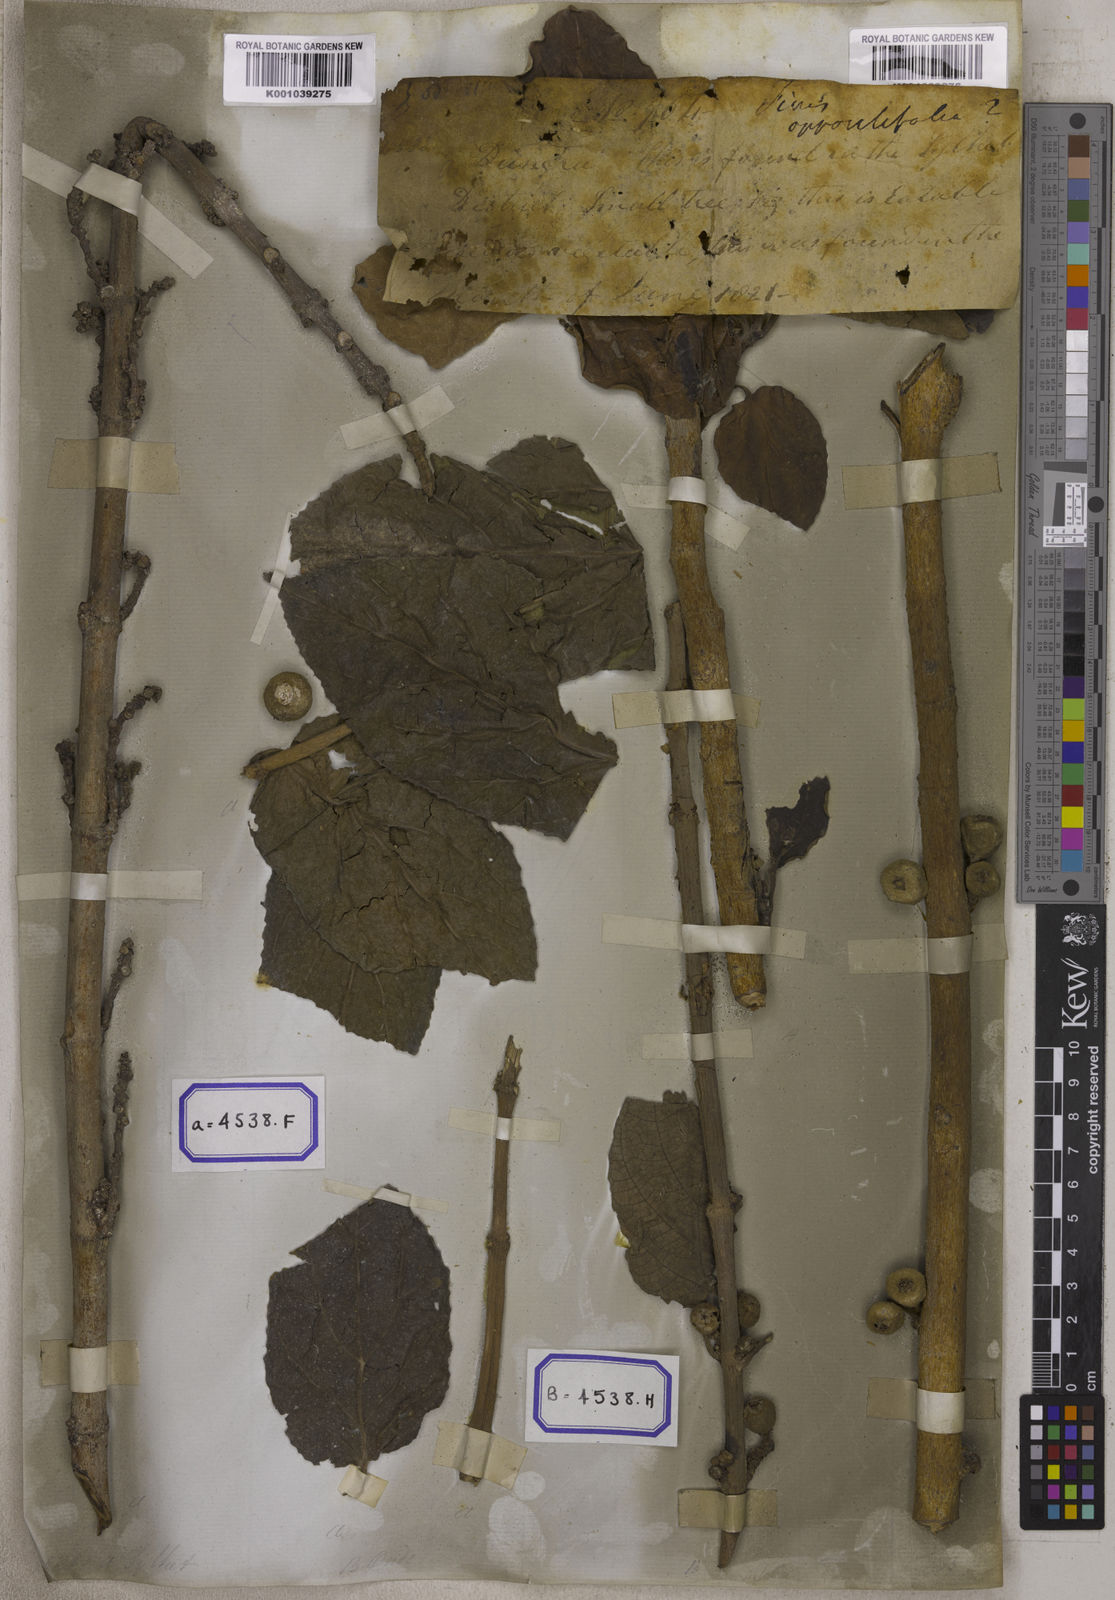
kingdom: Plantae
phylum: Tracheophyta
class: Magnoliopsida
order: Rosales
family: Moraceae
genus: Ficus
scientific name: Ficus hispida
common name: Hairy fig
